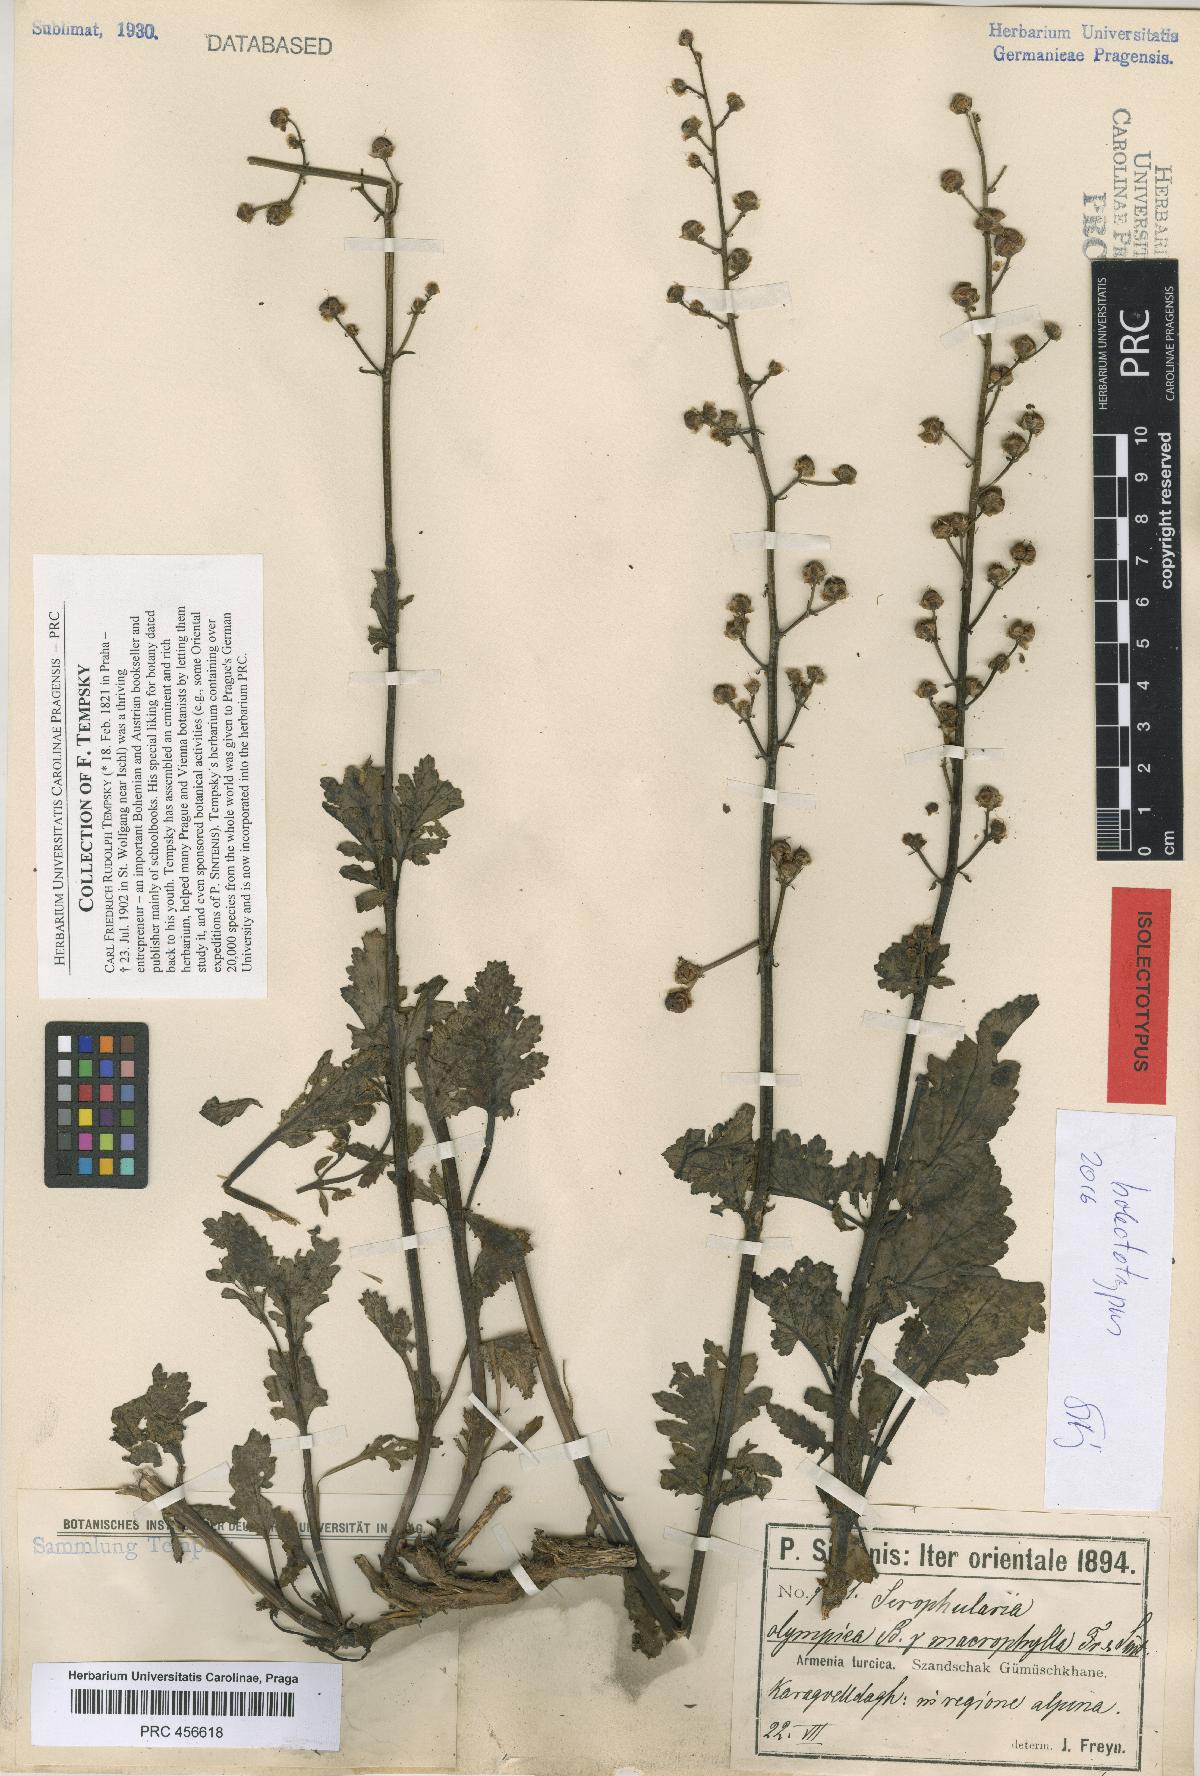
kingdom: Plantae
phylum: Tracheophyta
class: Magnoliopsida
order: Lamiales
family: Scrophulariaceae
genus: Scrophularia
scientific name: Scrophularia olympica
